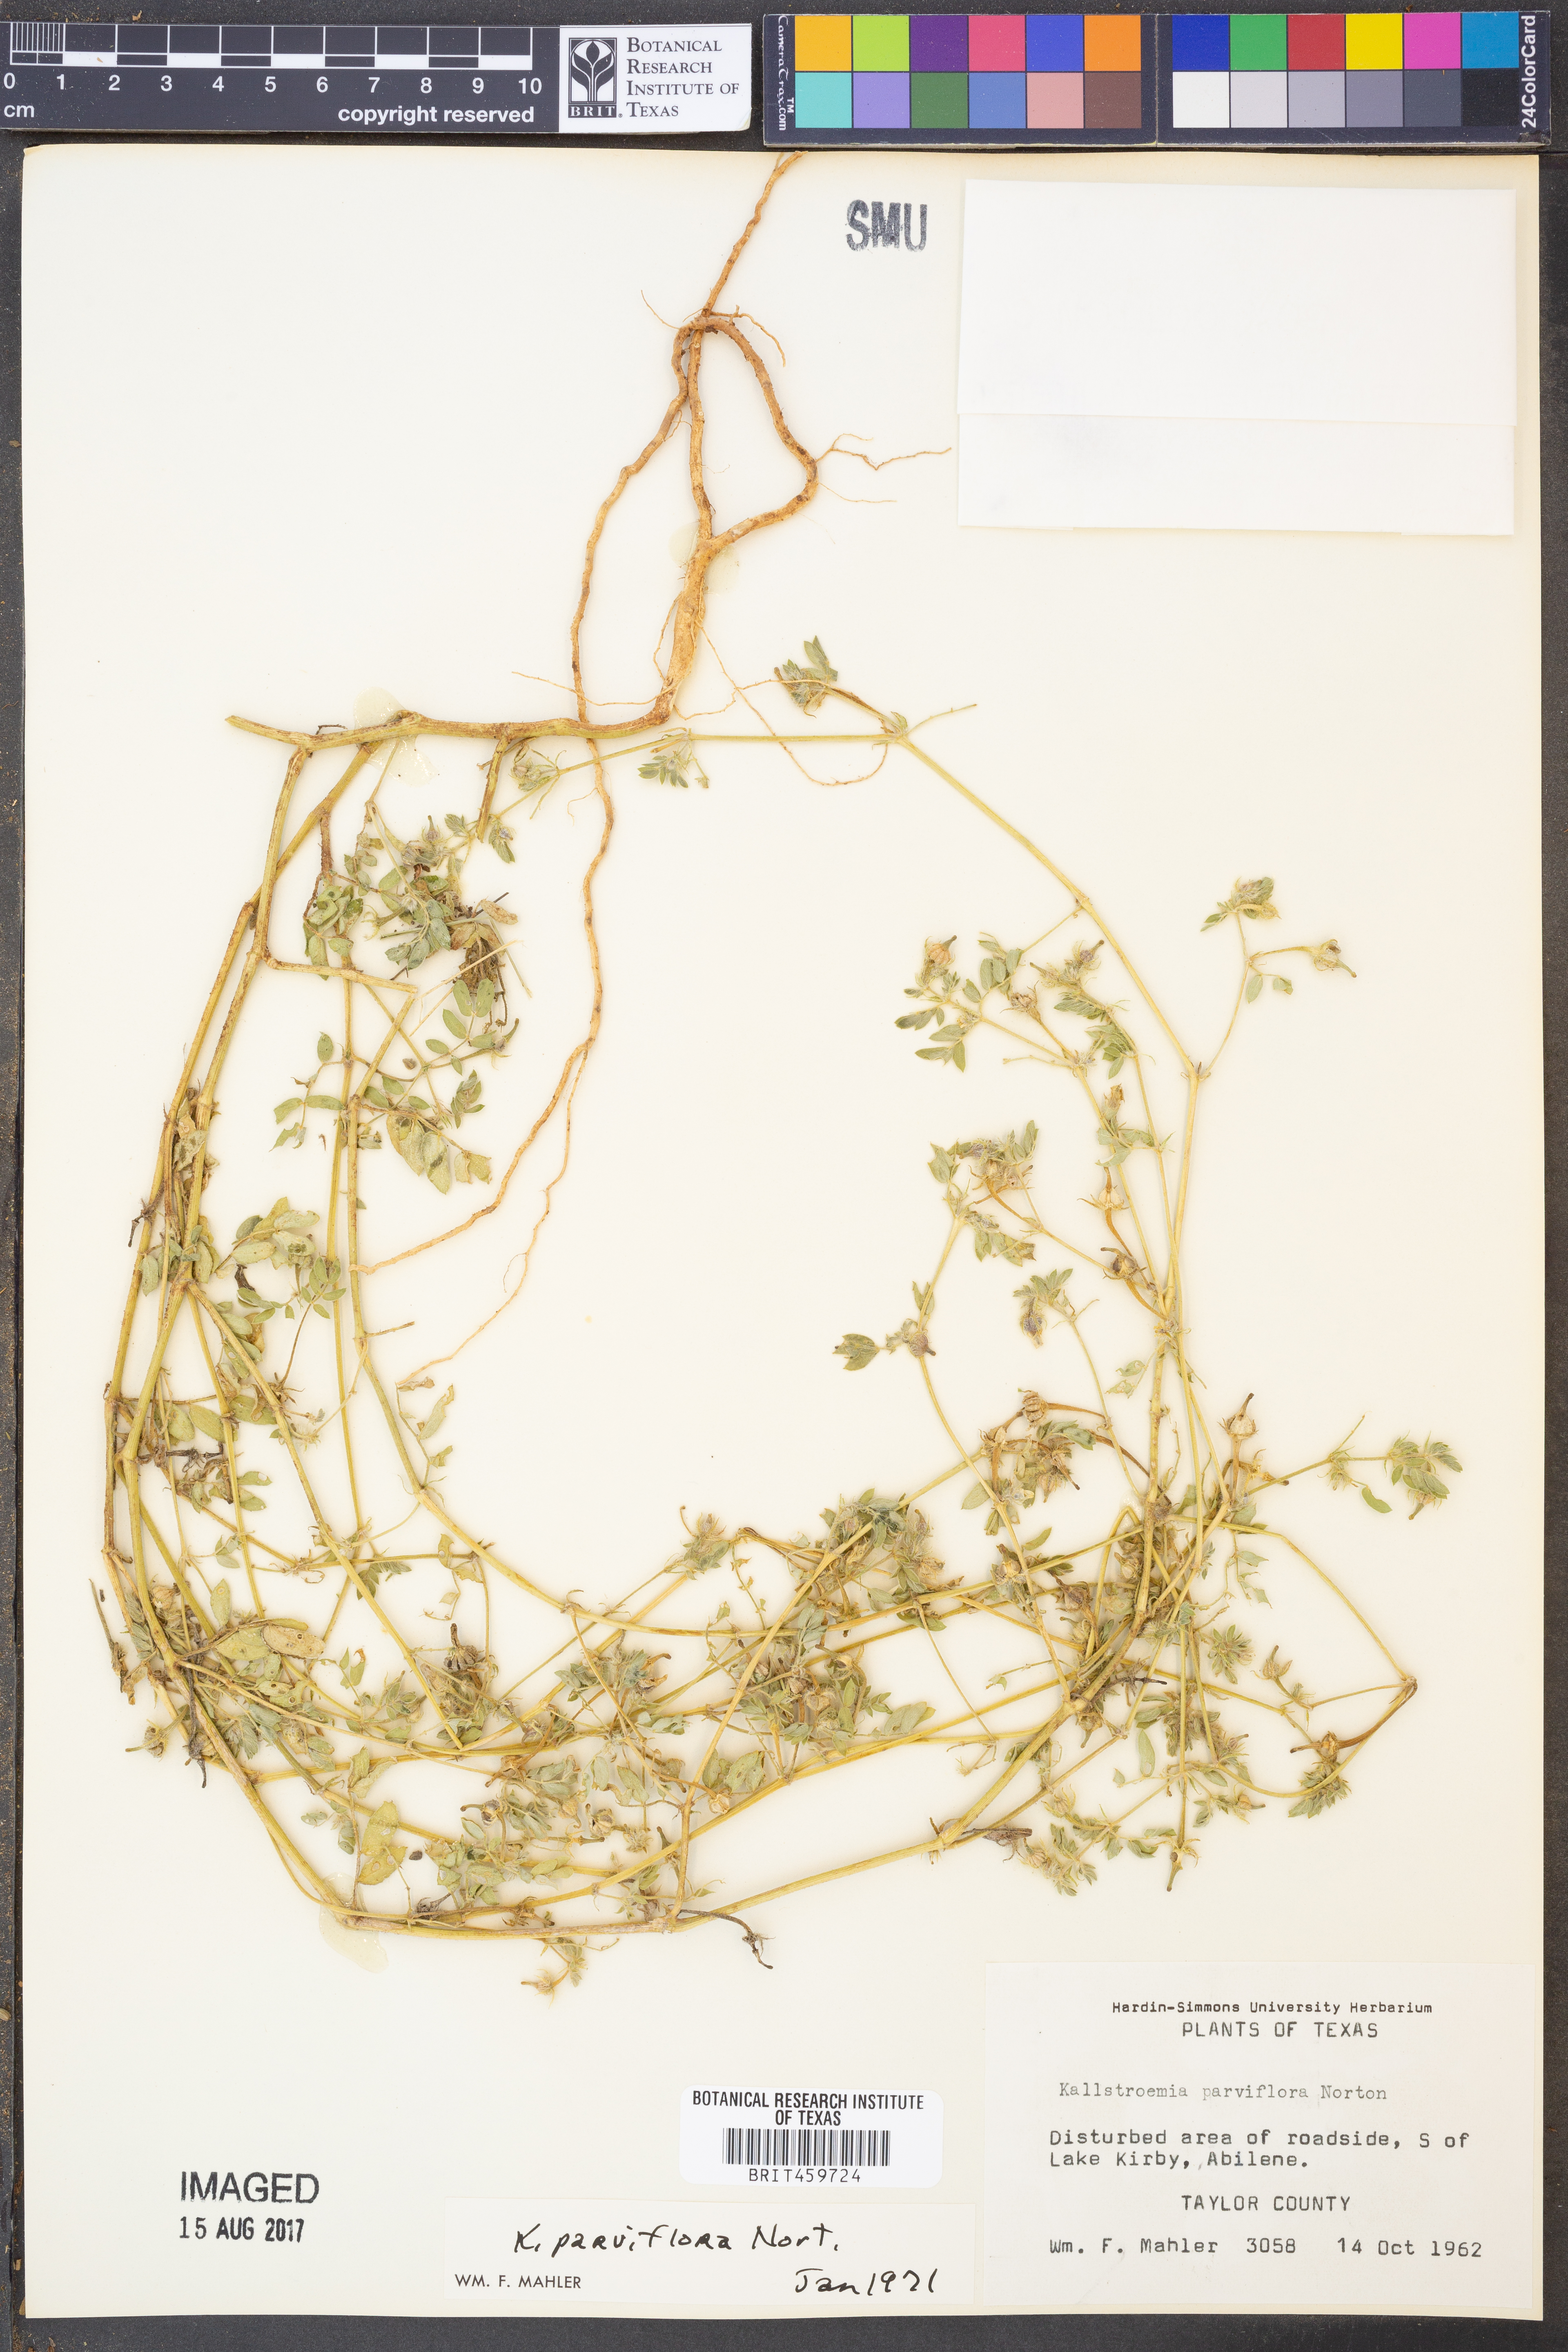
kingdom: Plantae
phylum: Tracheophyta
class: Magnoliopsida
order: Zygophyllales
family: Zygophyllaceae
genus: Kallstroemia
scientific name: Kallstroemia parviflora
